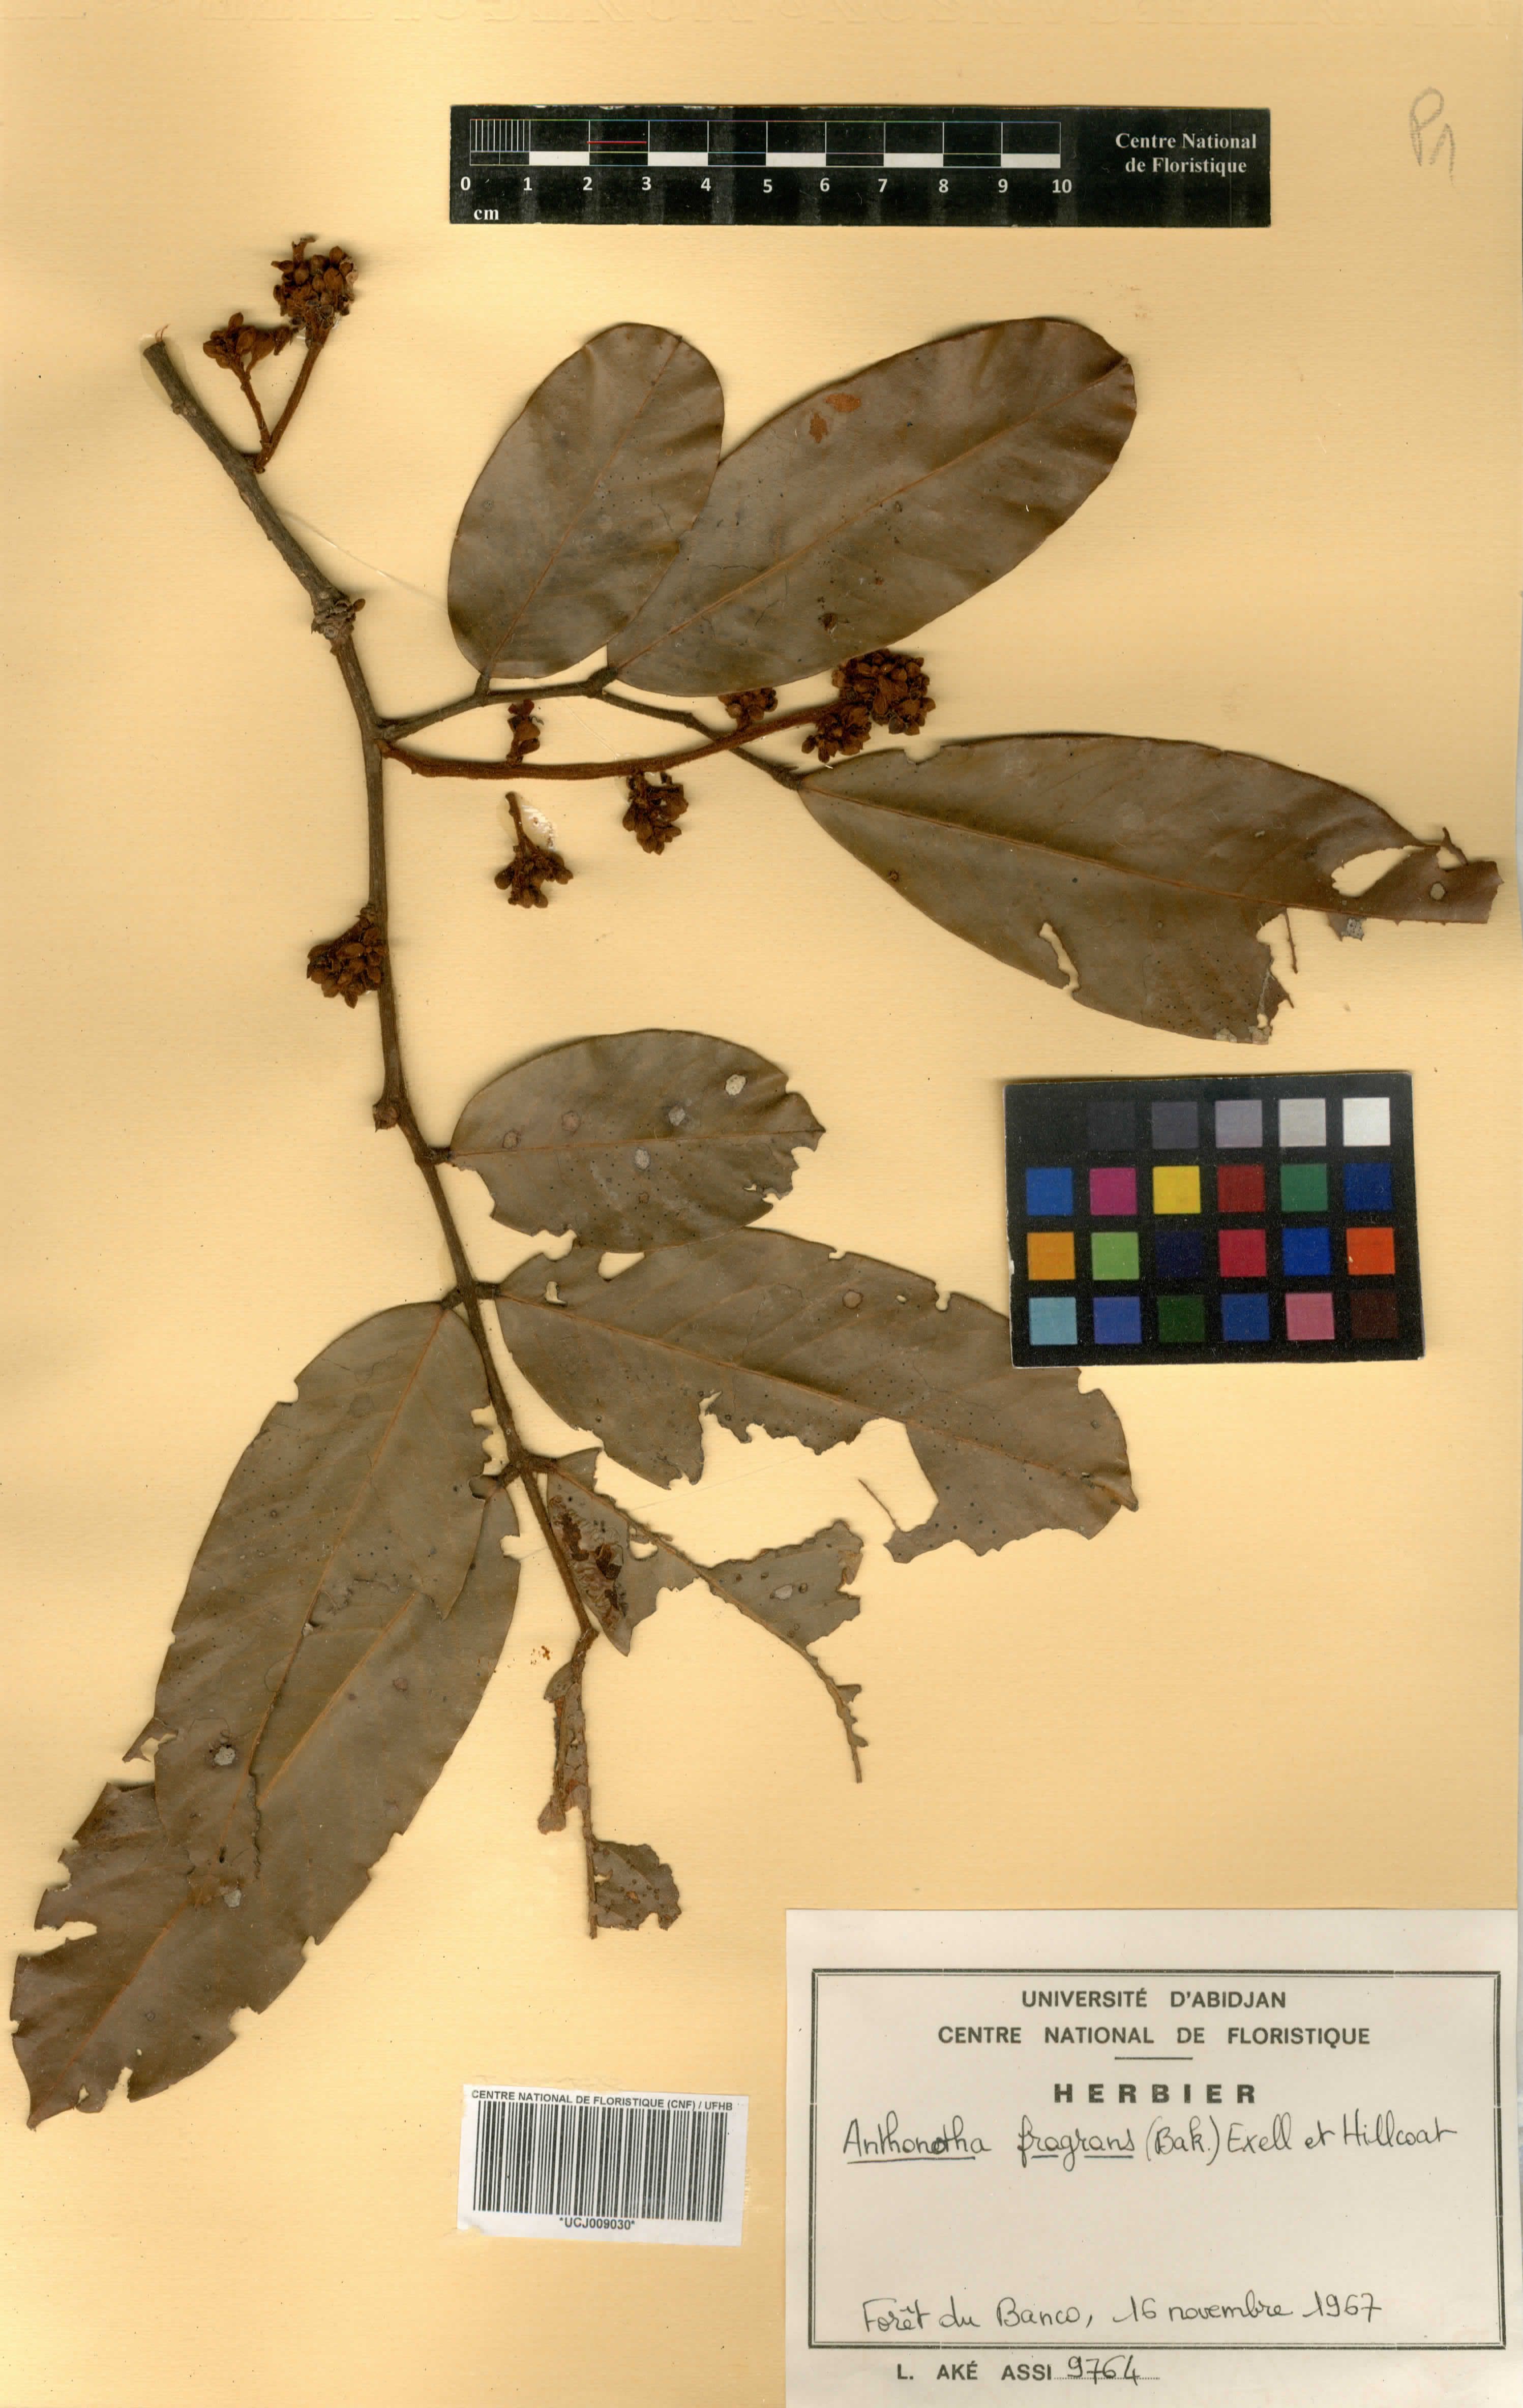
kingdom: Plantae
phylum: Tracheophyta
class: Magnoliopsida
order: Fabales
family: Fabaceae
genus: Anthonotha
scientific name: Anthonotha fragrans
